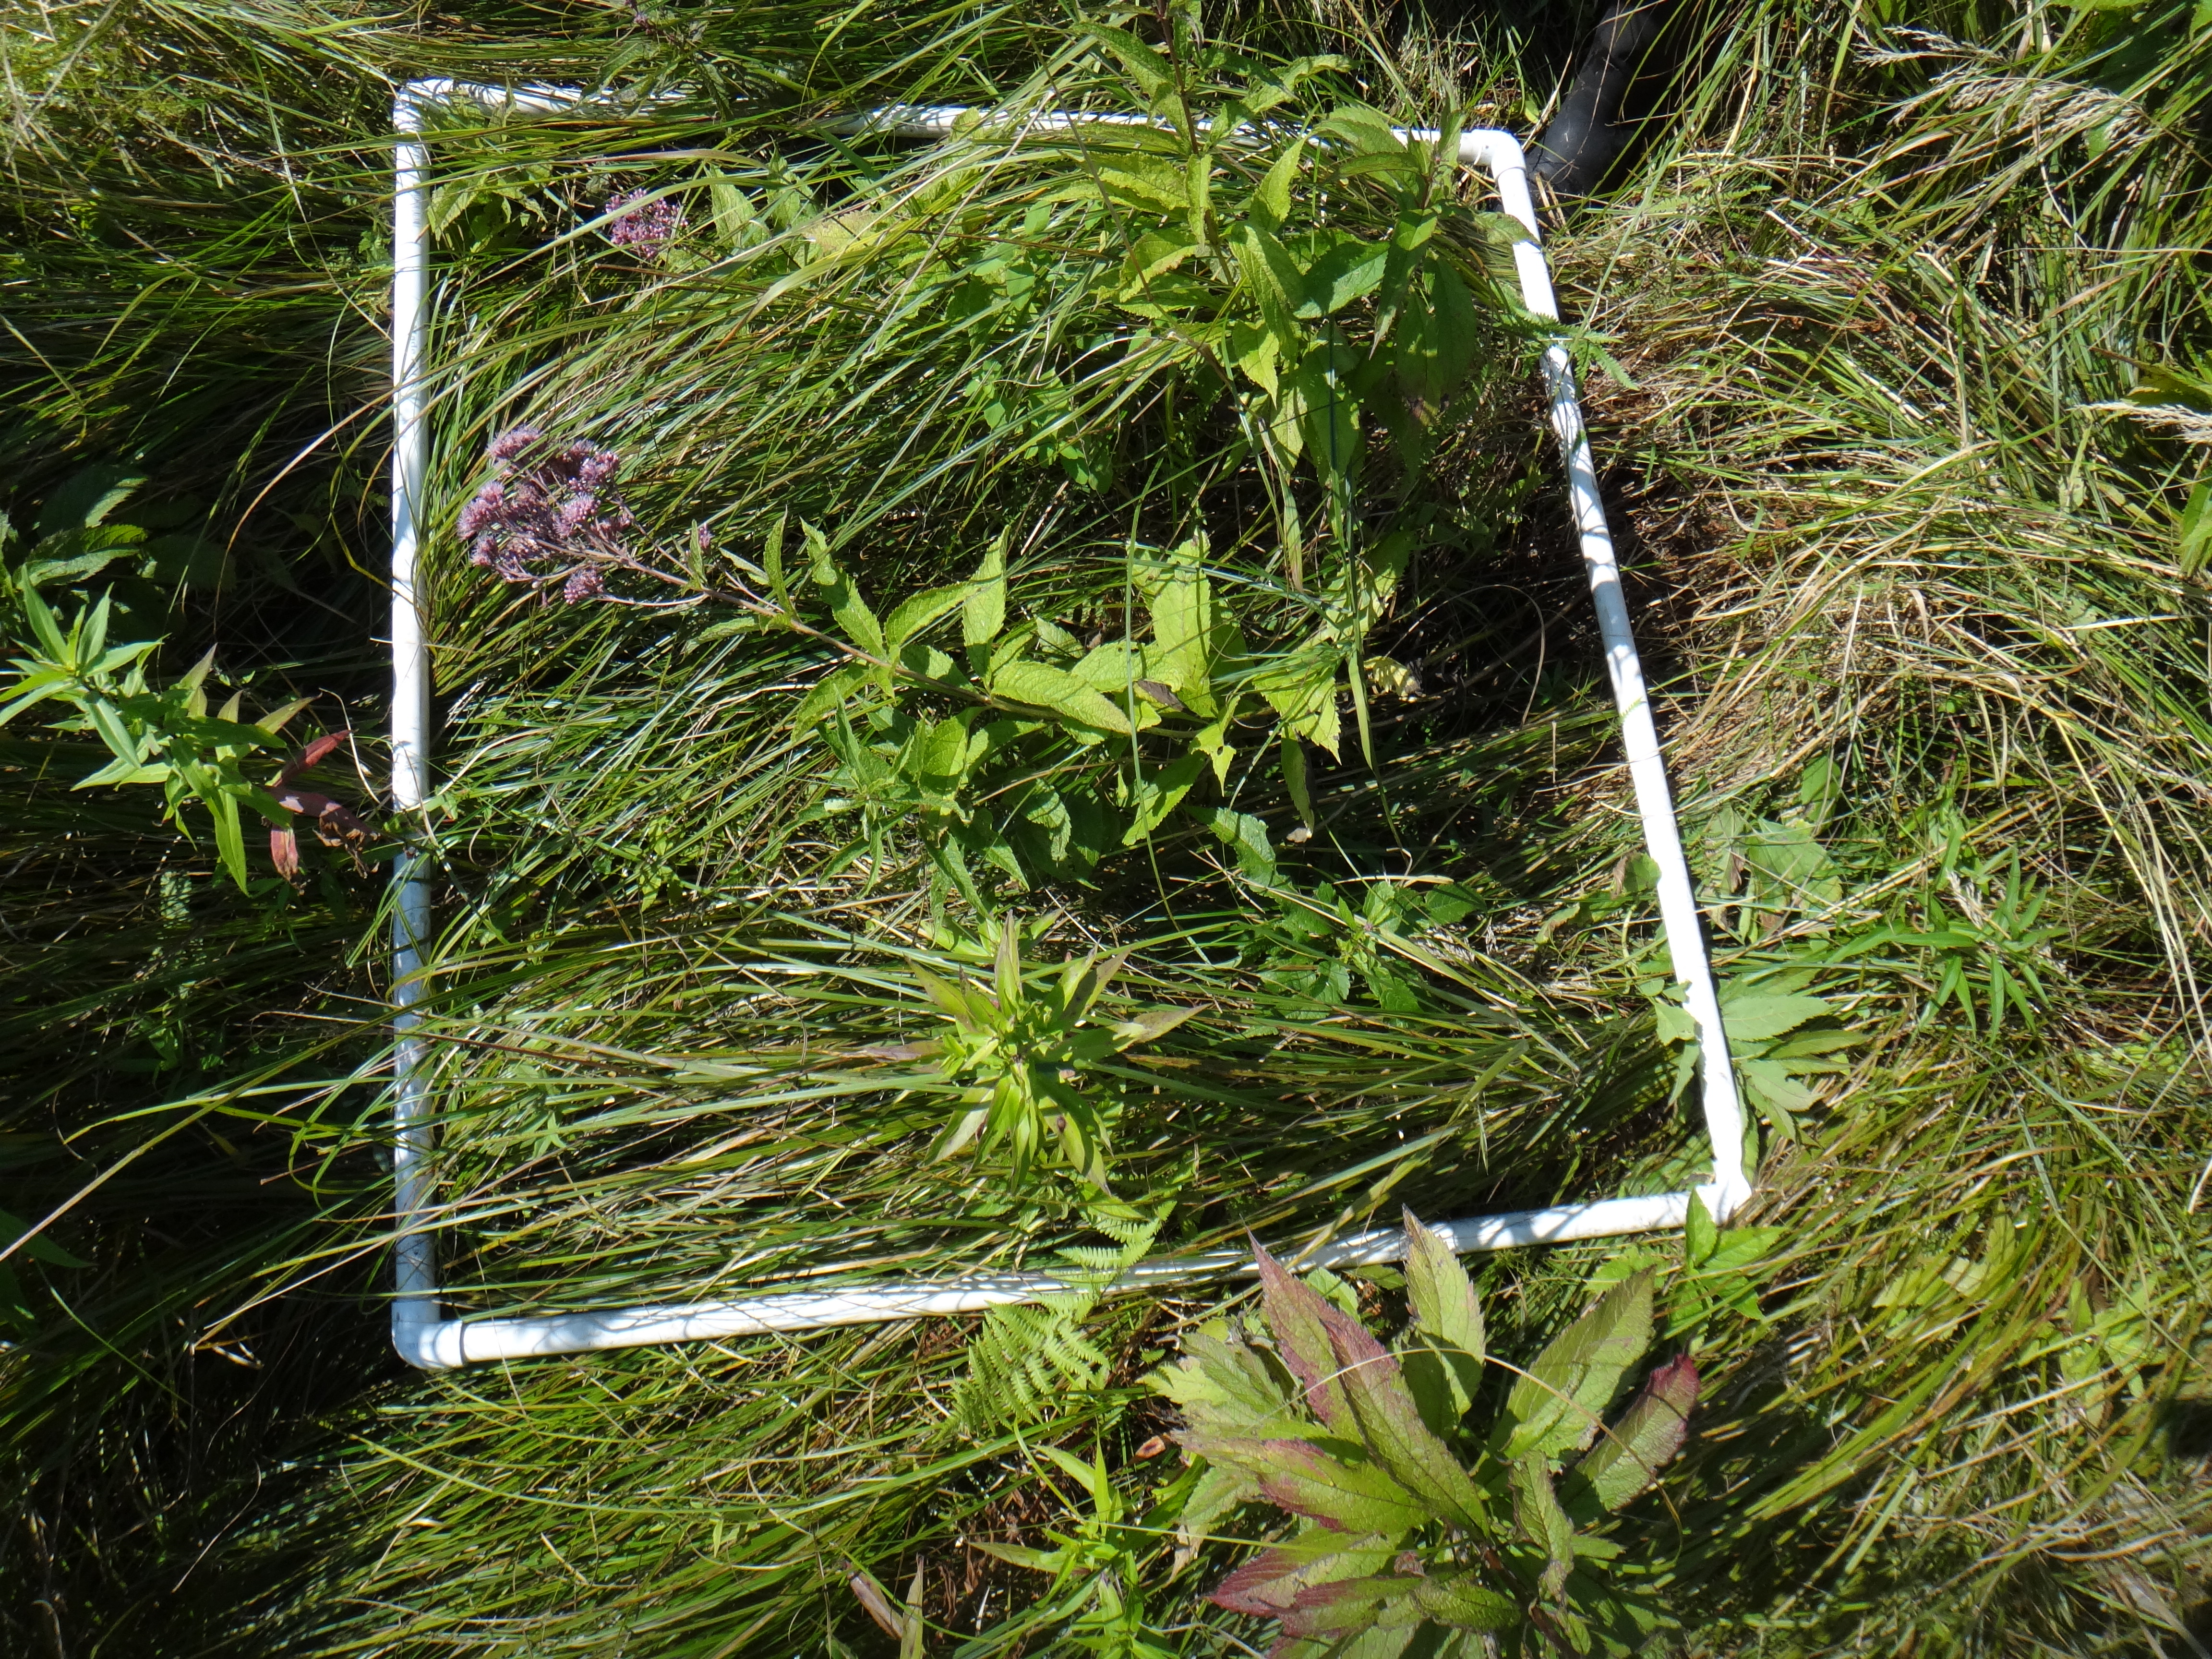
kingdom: Plantae
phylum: Tracheophyta
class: Liliopsida
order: Poales
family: Cyperaceae
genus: Carex
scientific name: Carex stricta
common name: Hummock sedge
